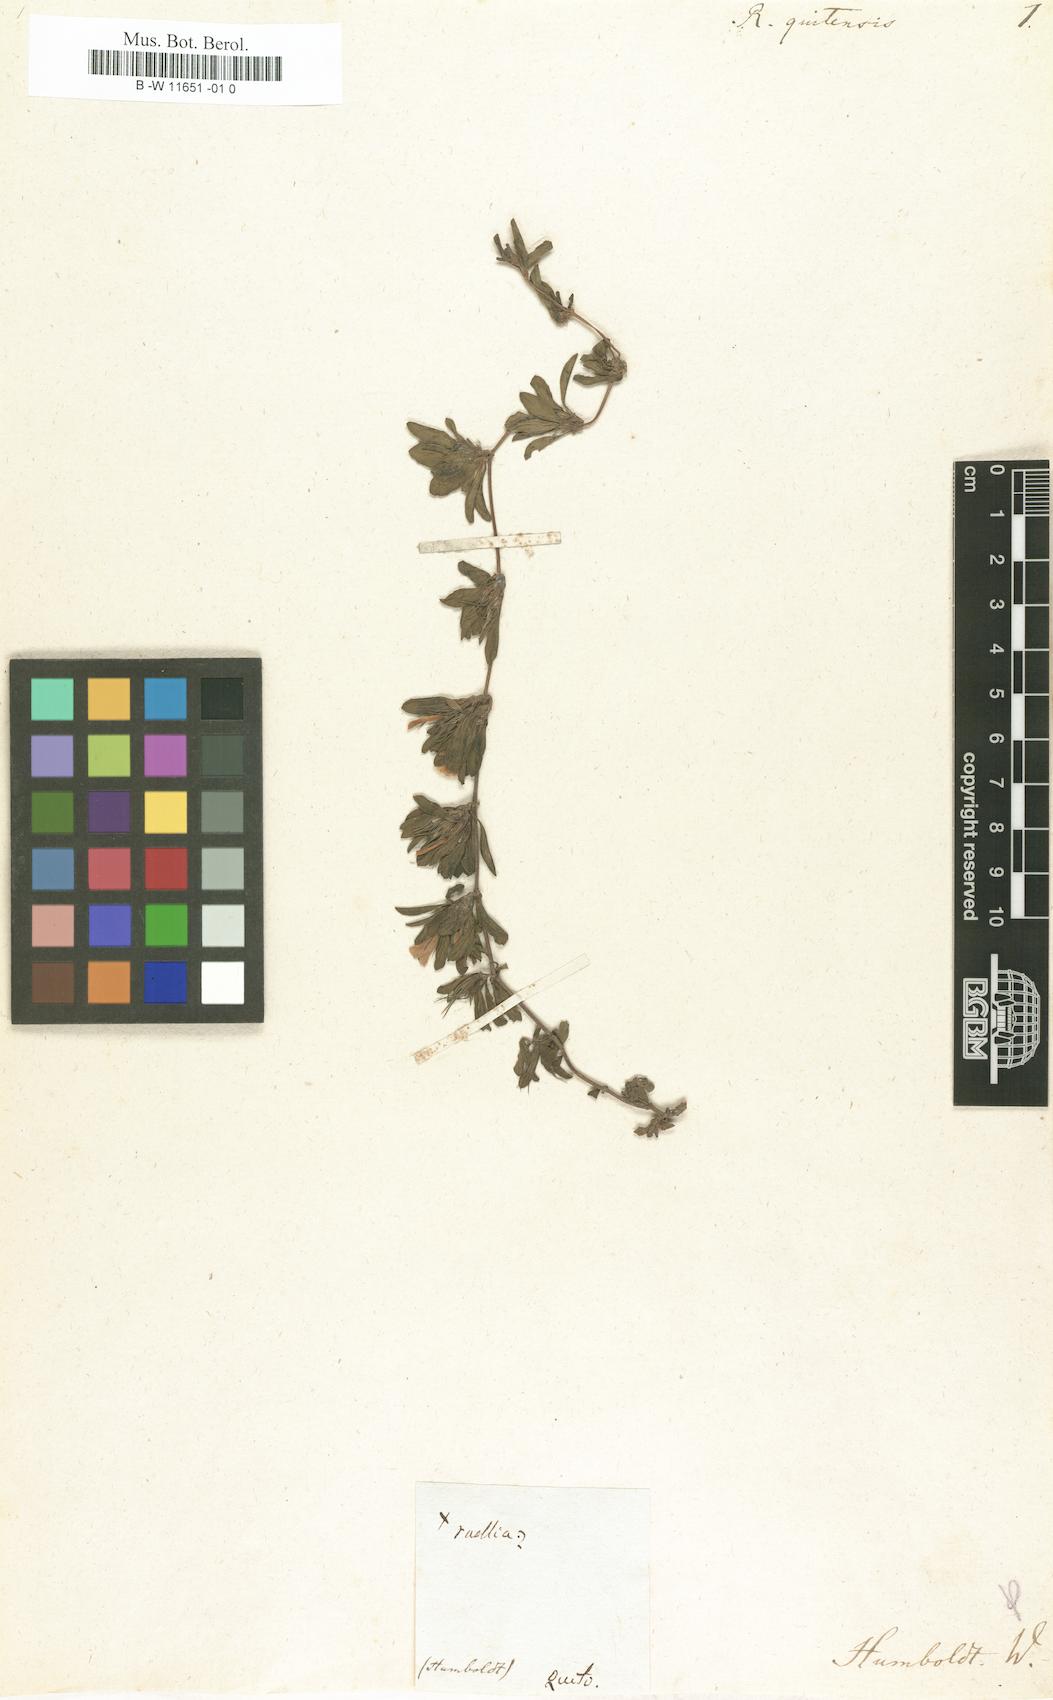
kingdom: Plantae
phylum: Tracheophyta
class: Magnoliopsida
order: Lamiales
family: Acanthaceae
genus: Dyschoriste
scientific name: Dyschoriste quitensis
